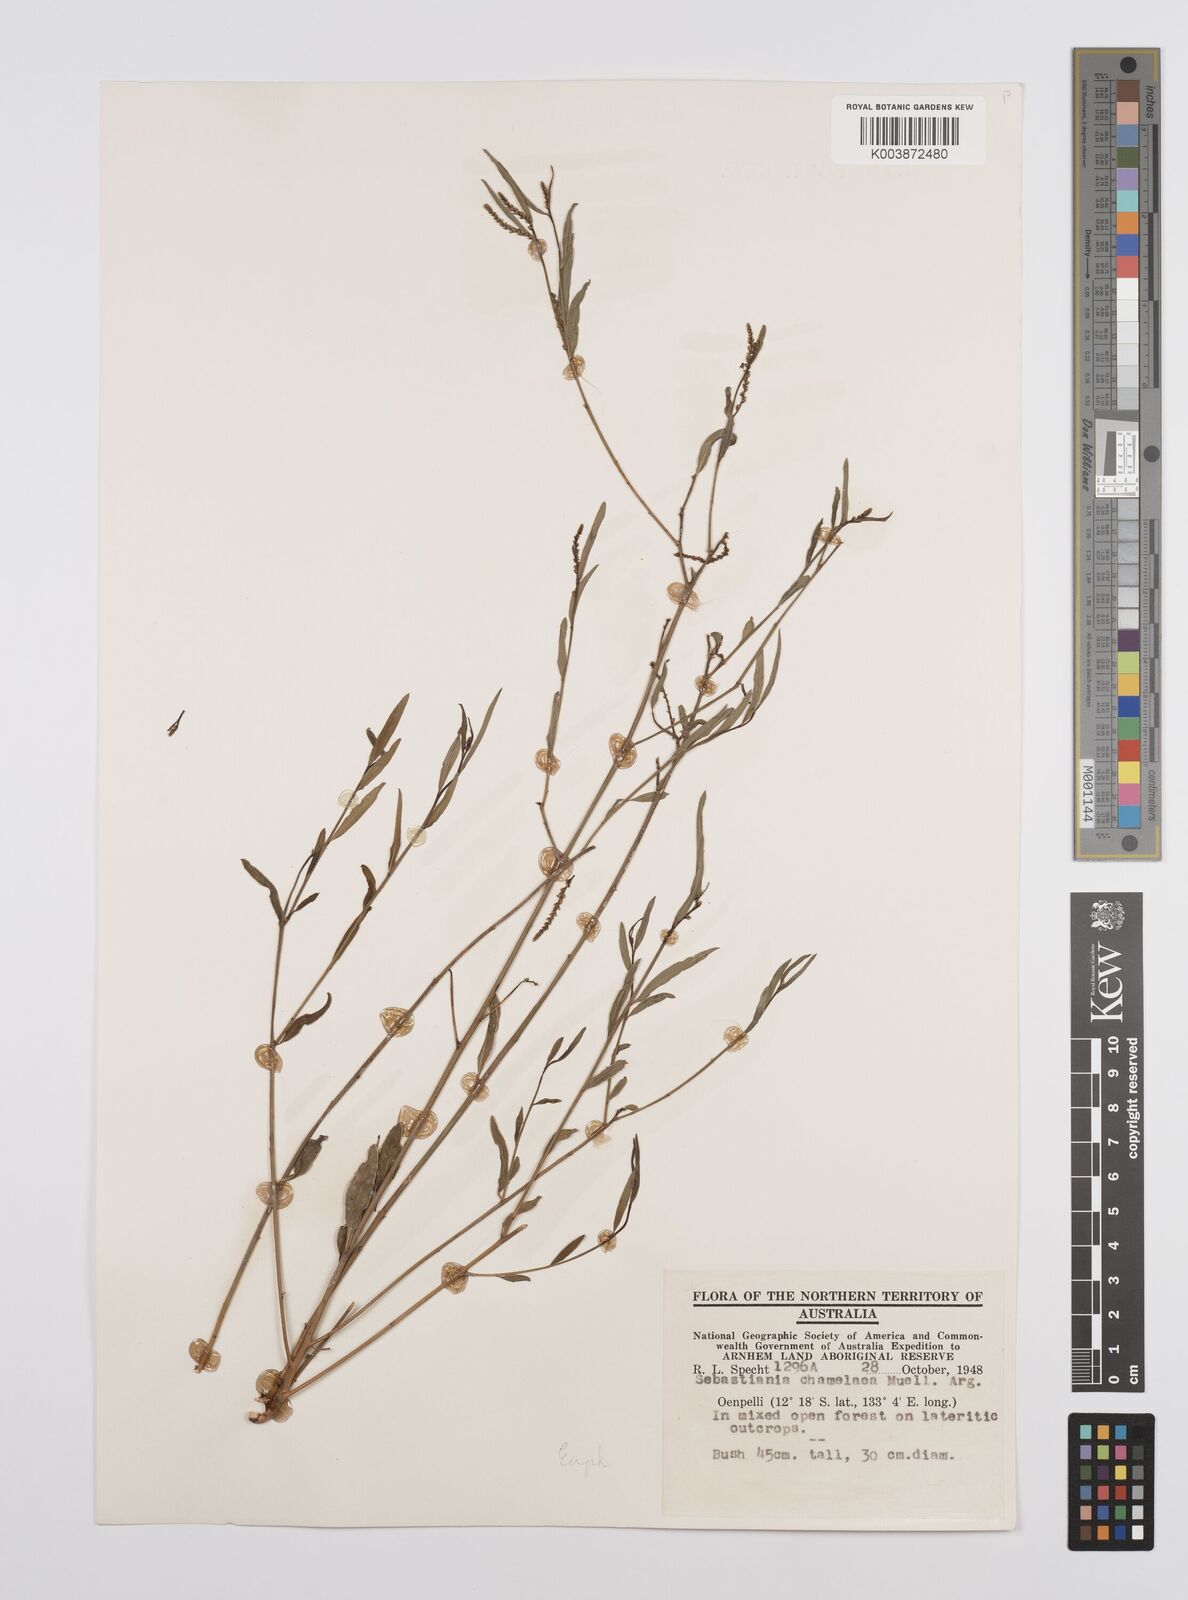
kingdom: Plantae
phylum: Tracheophyta
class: Magnoliopsida
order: Malpighiales
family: Euphorbiaceae
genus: Microstachys
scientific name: Microstachys chamaelea
